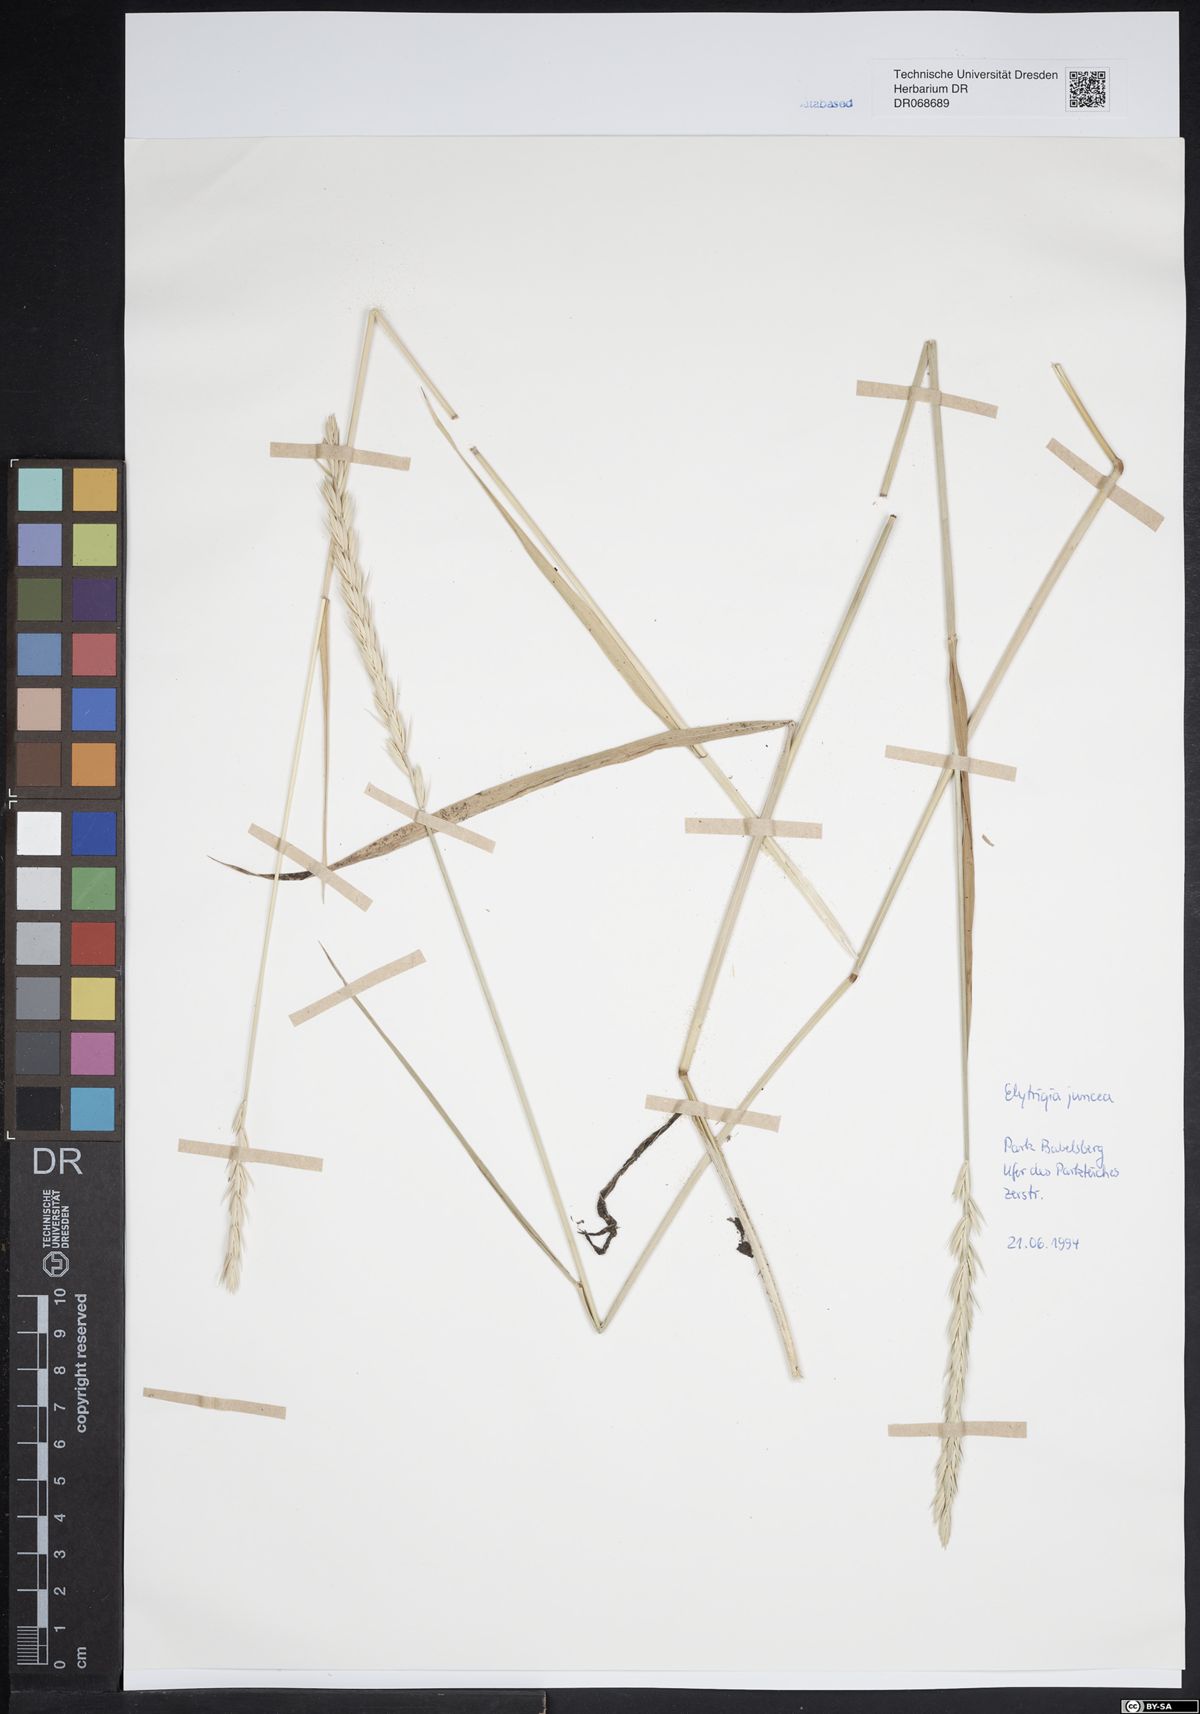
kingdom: Plantae
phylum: Tracheophyta
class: Liliopsida
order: Poales
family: Poaceae
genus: Thinopyrum
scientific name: Thinopyrum junceum
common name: Russian wheatgrass
